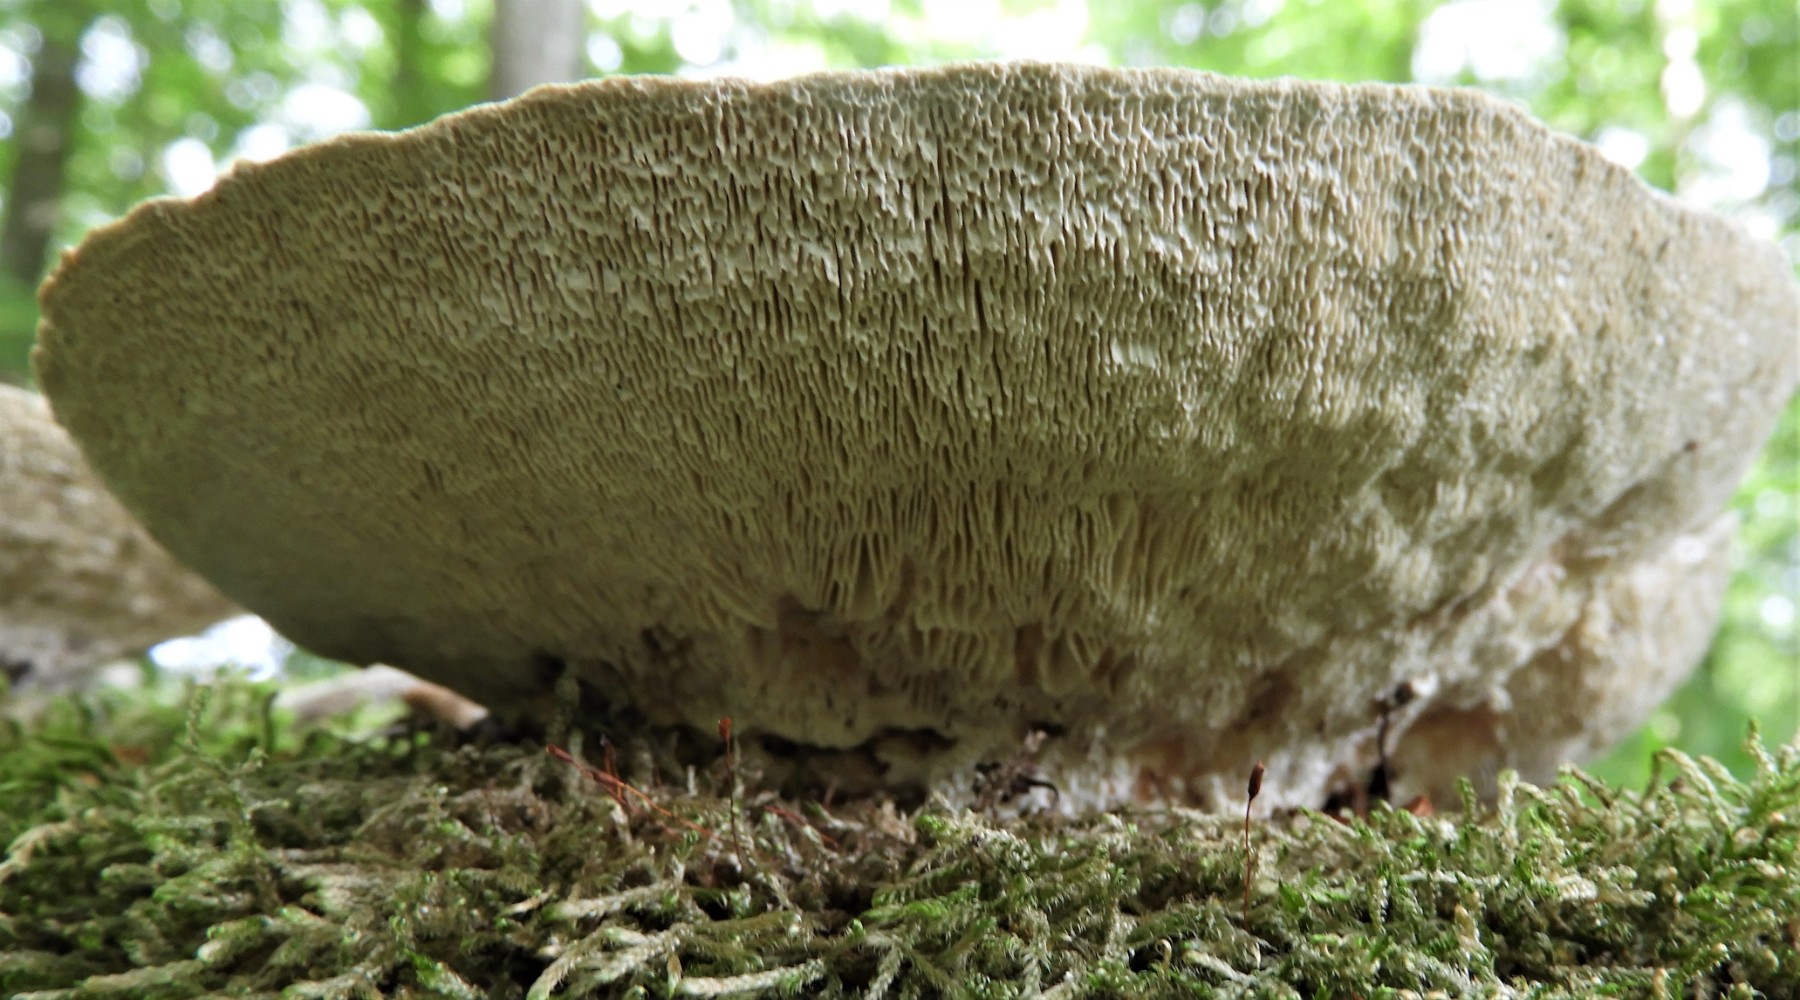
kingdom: Fungi
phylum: Basidiomycota
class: Agaricomycetes
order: Polyporales
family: Polyporaceae
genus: Trametes
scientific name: Trametes hirsuta
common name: håret læderporesvamp
